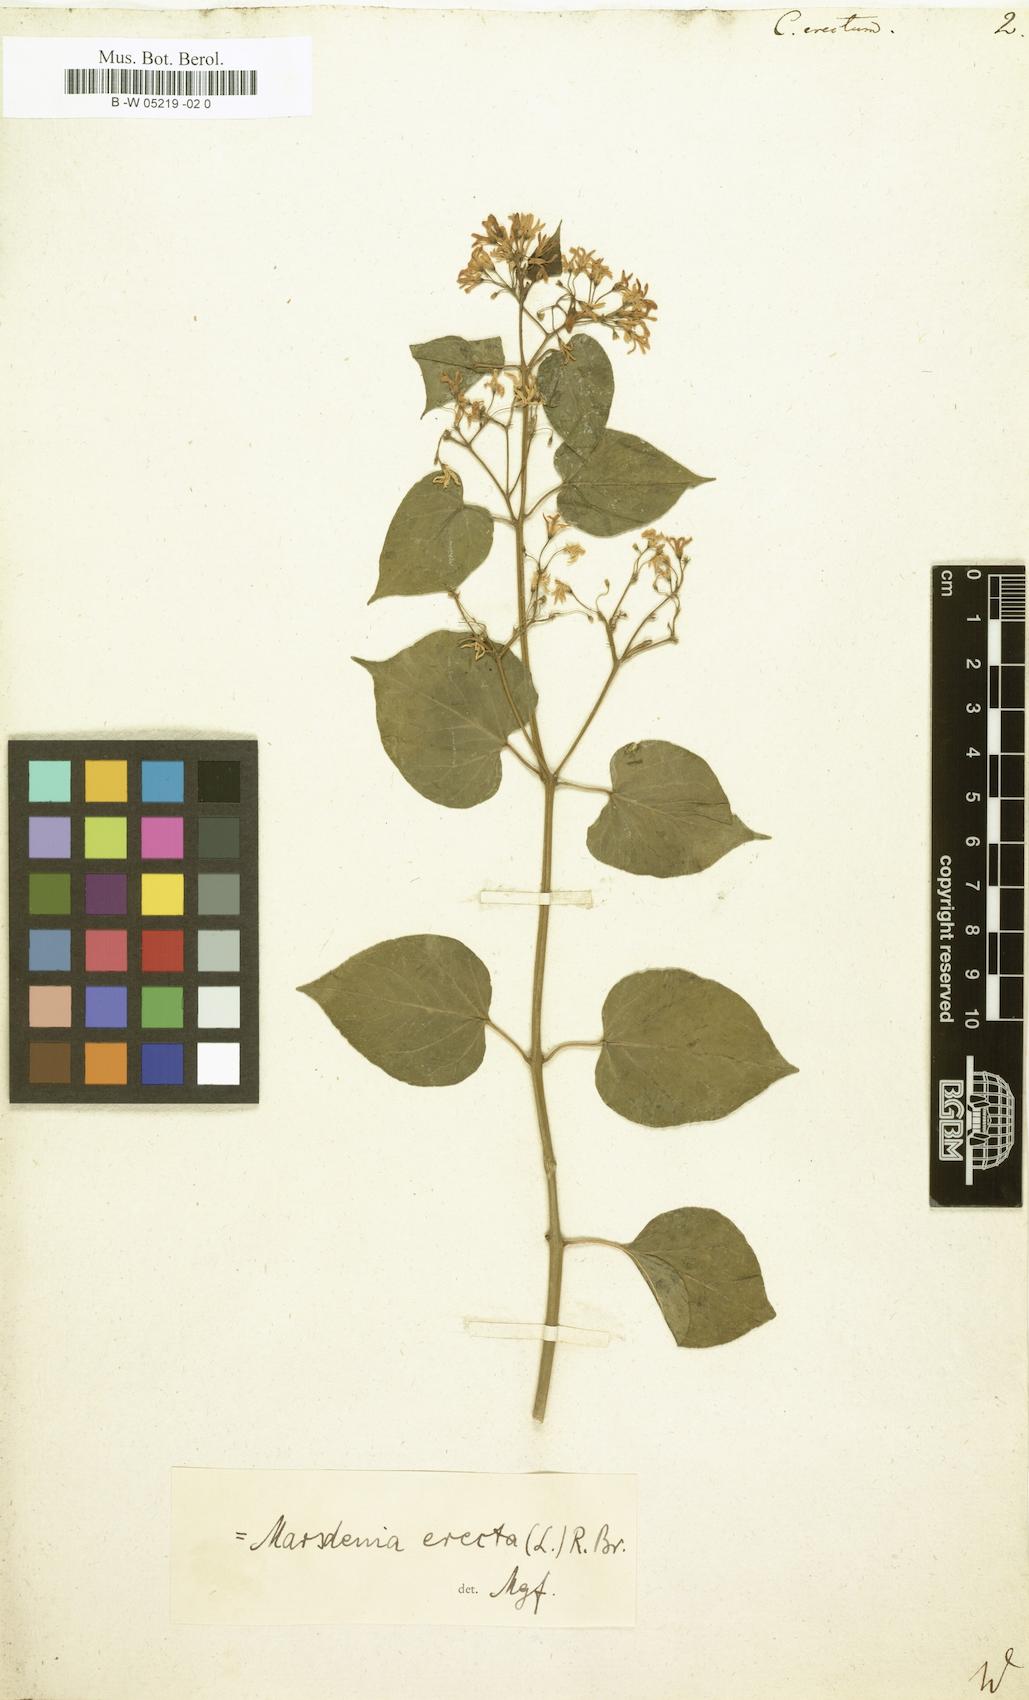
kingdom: Plantae
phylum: Tracheophyta
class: Magnoliopsida
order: Gentianales
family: Apocynaceae
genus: Cionura
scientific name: Cionura erecta
